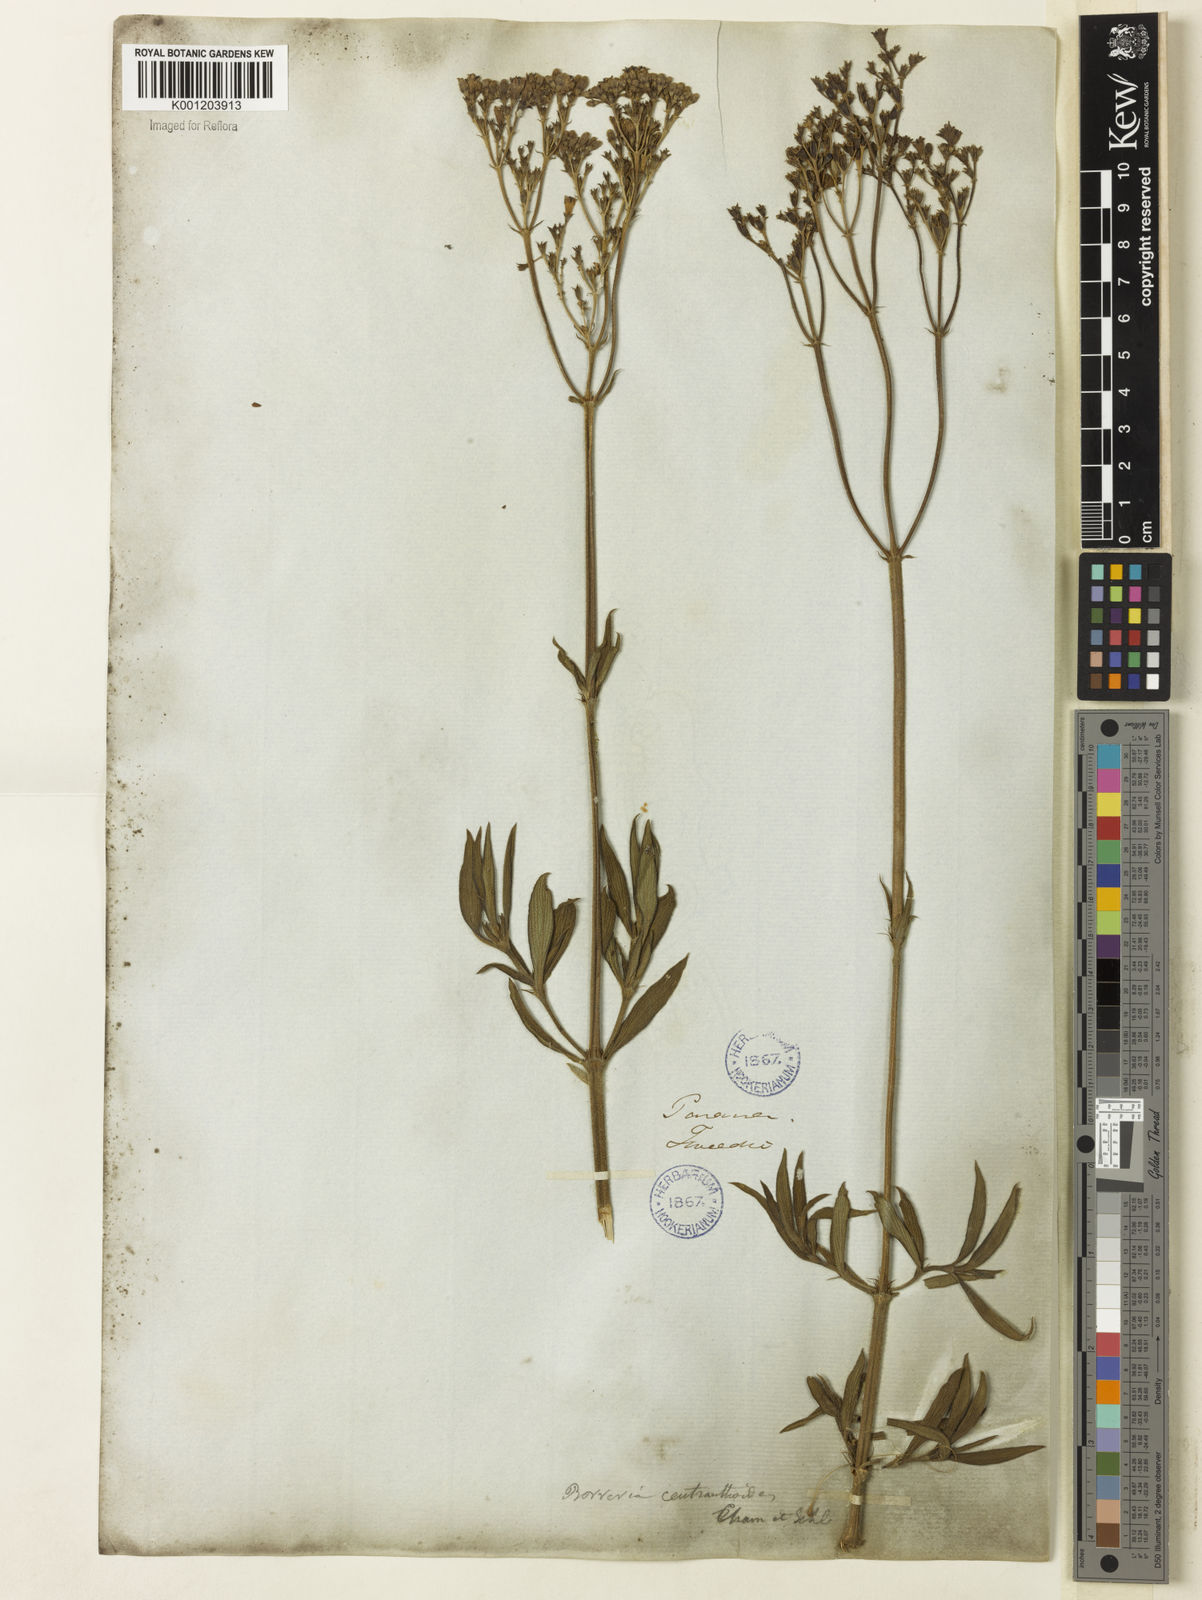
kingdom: Plantae
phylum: Tracheophyta
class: Magnoliopsida
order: Gentianales
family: Rubiaceae
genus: Galianthe
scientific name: Galianthe centranthoides
